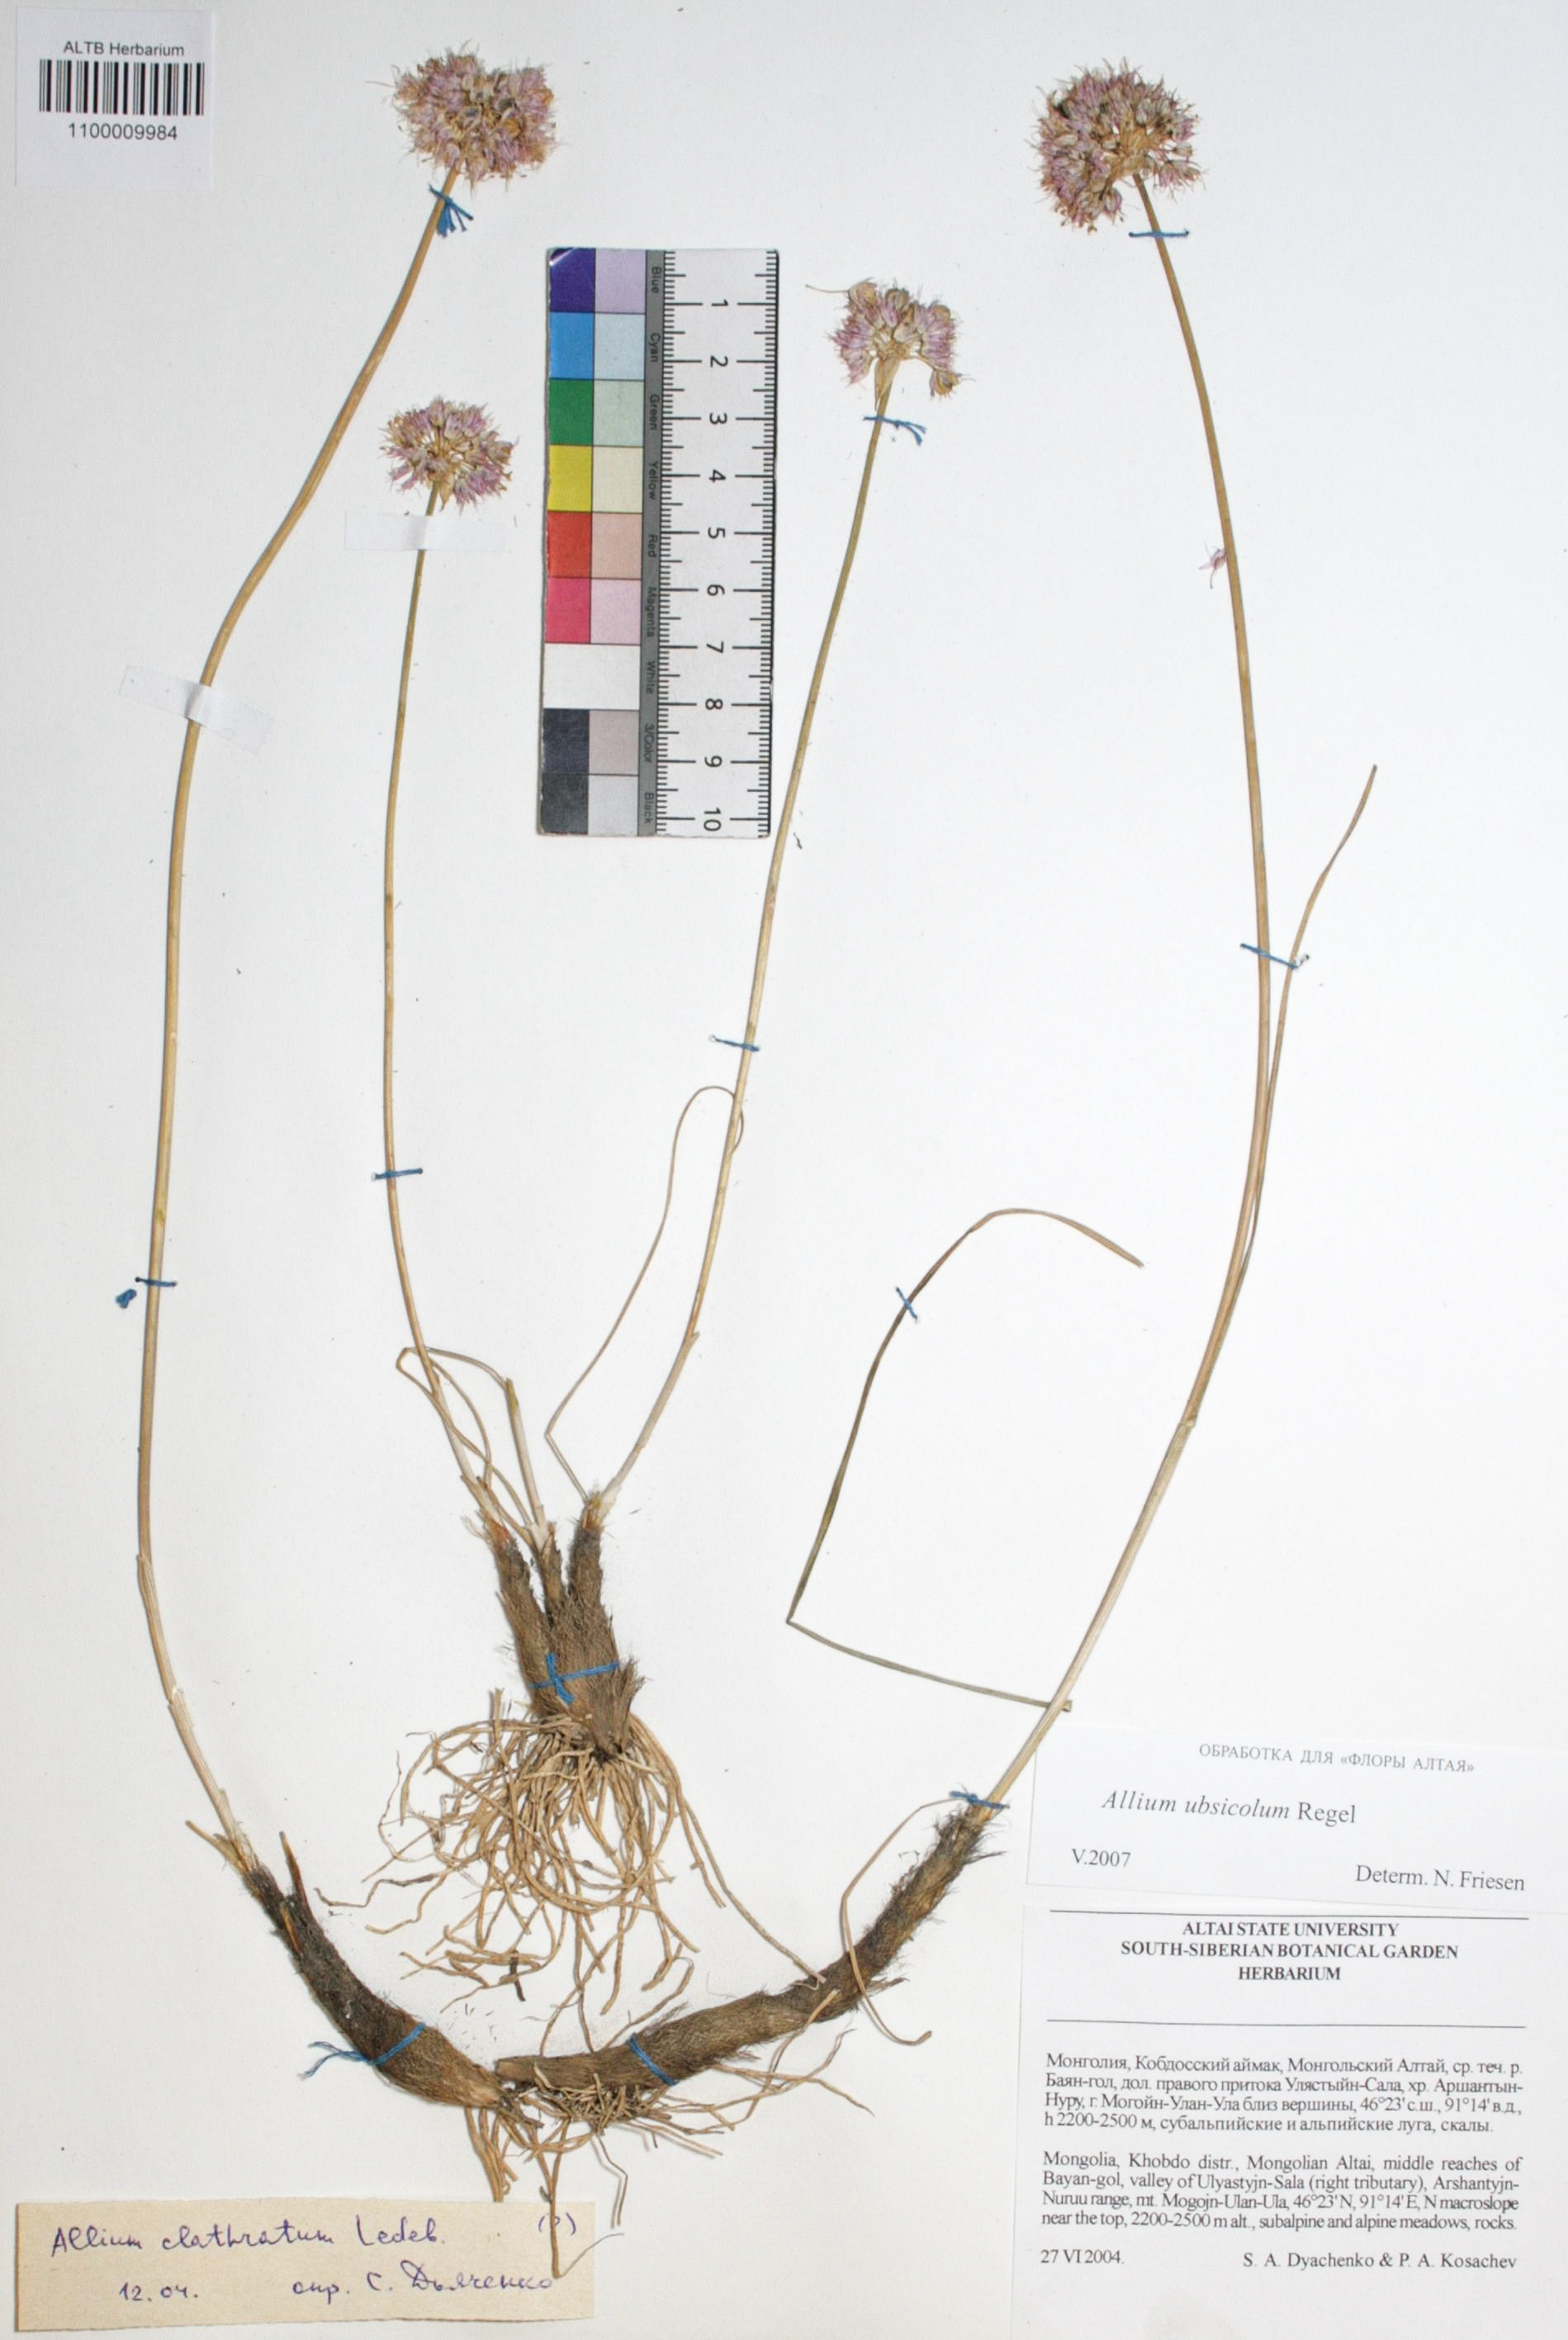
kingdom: Plantae
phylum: Tracheophyta
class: Liliopsida
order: Asparagales
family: Amaryllidaceae
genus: Allium
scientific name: Allium ubsicola
